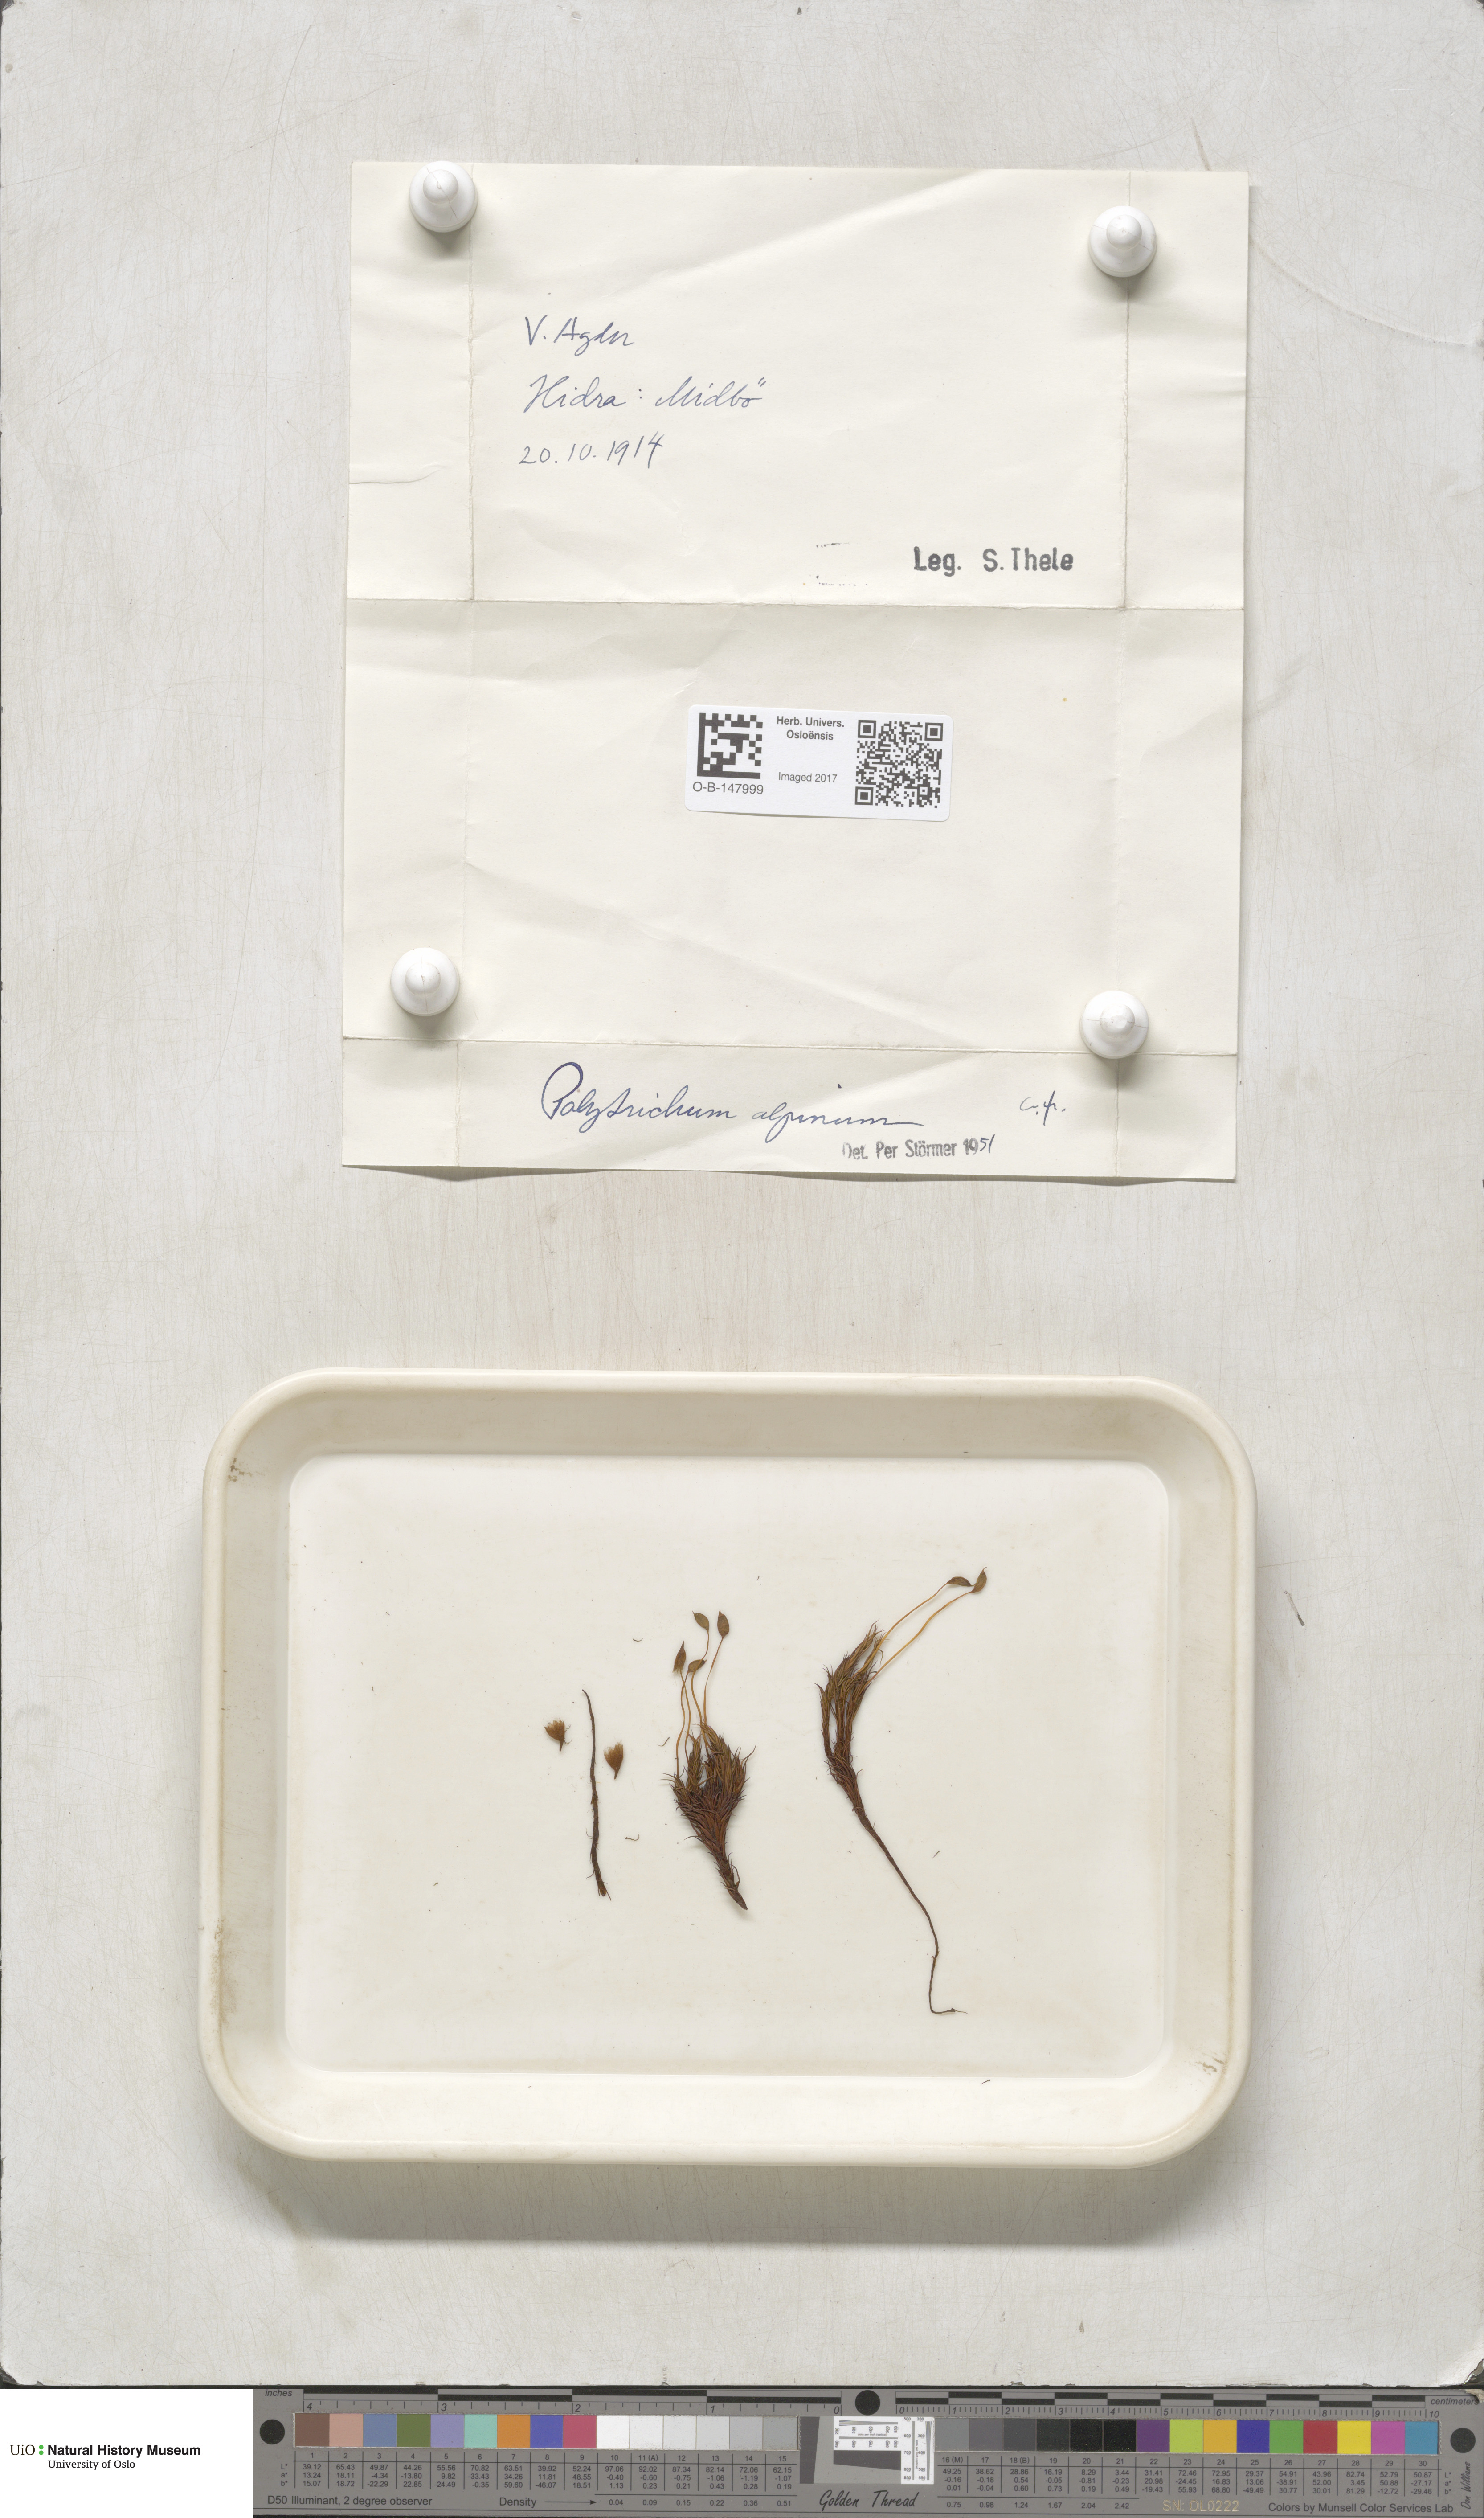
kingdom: Plantae
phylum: Bryophyta
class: Polytrichopsida
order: Polytrichales
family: Polytrichaceae
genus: Polytrichastrum
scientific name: Polytrichastrum alpinum
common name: Alpine haircap
